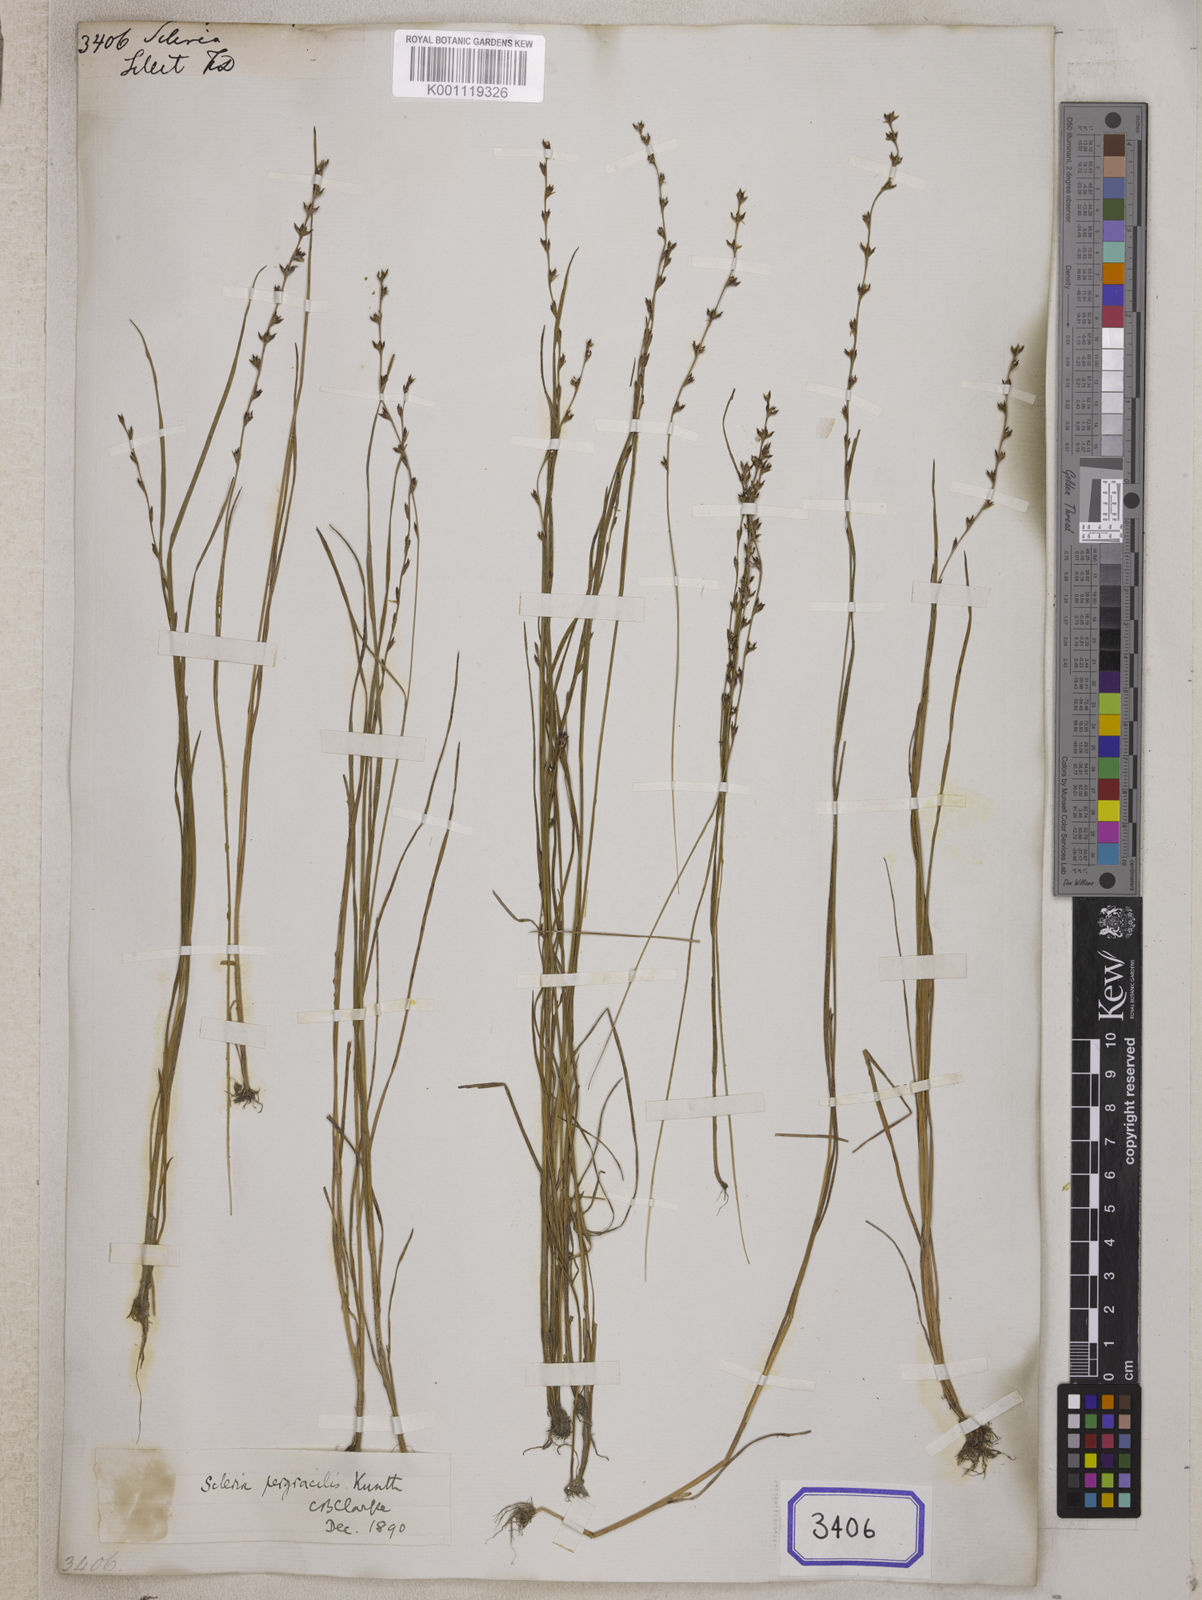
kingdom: Plantae
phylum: Tracheophyta
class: Liliopsida
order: Poales
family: Cyperaceae
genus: Scleria
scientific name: Scleria
